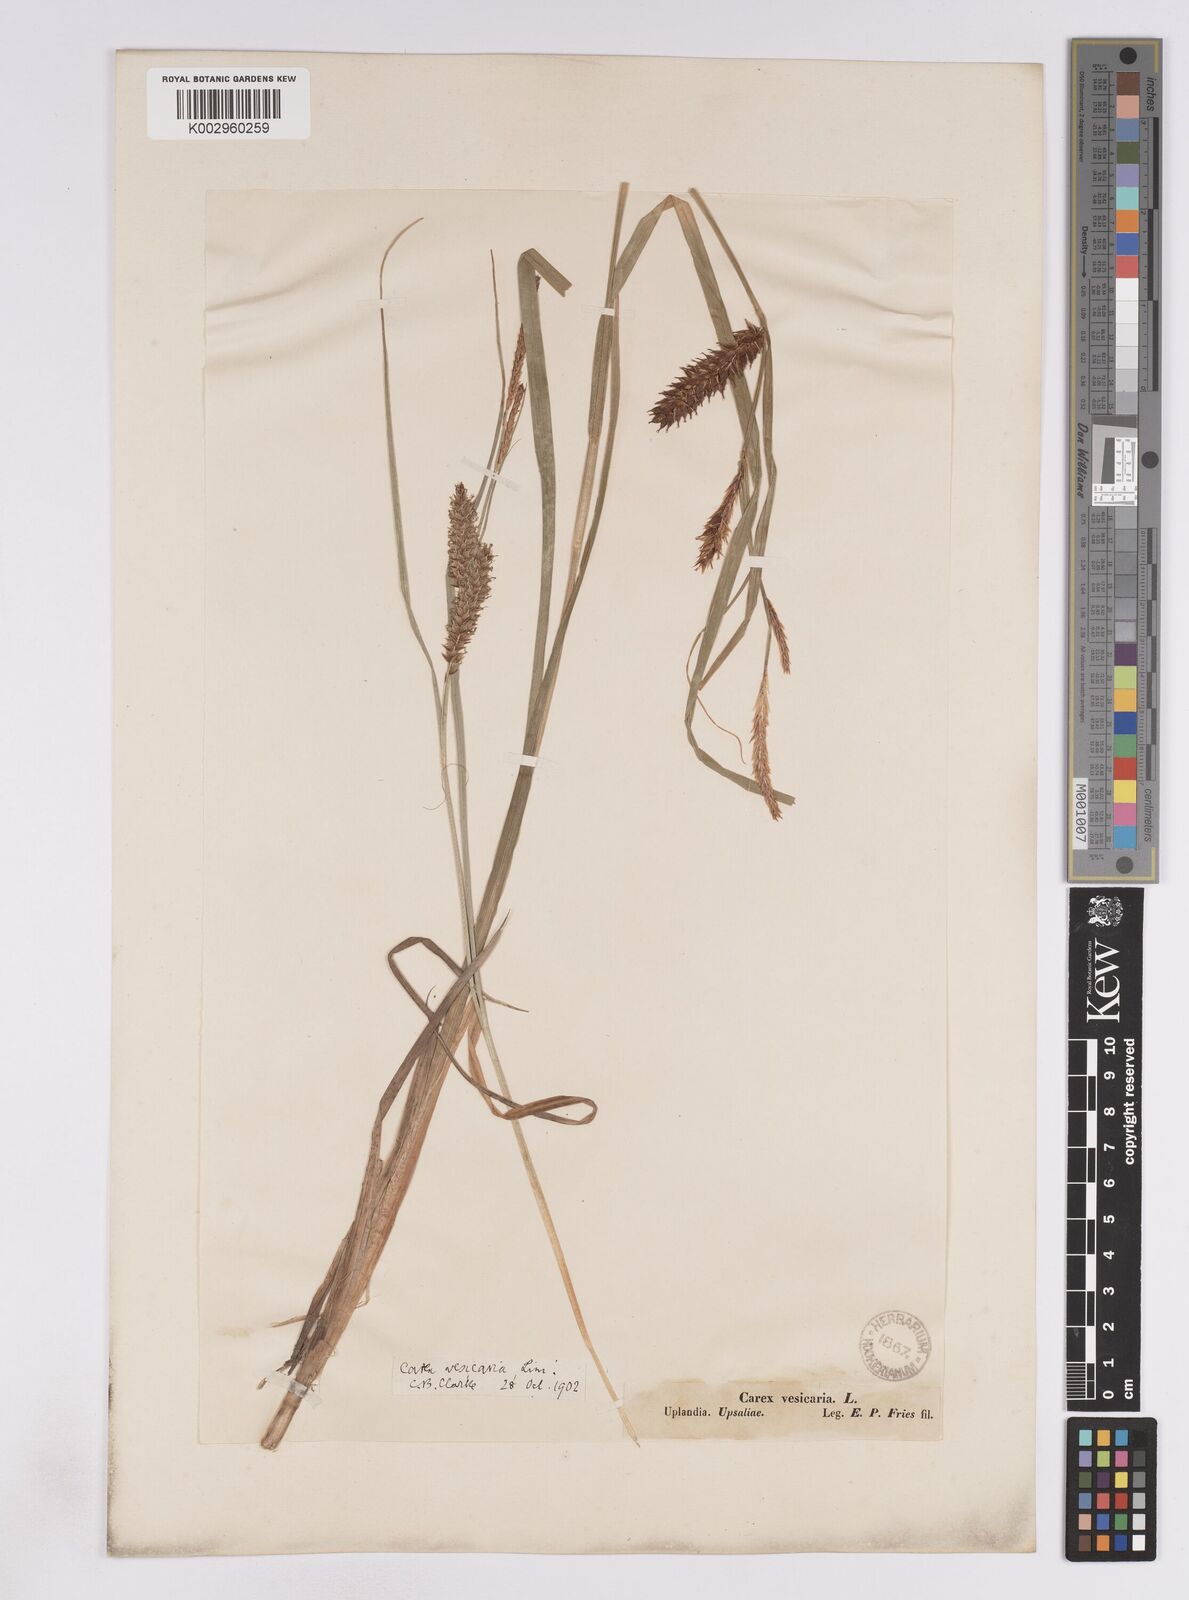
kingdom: Plantae
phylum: Tracheophyta
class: Liliopsida
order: Poales
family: Cyperaceae
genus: Carex
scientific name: Carex vesicaria
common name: Bladder-sedge
